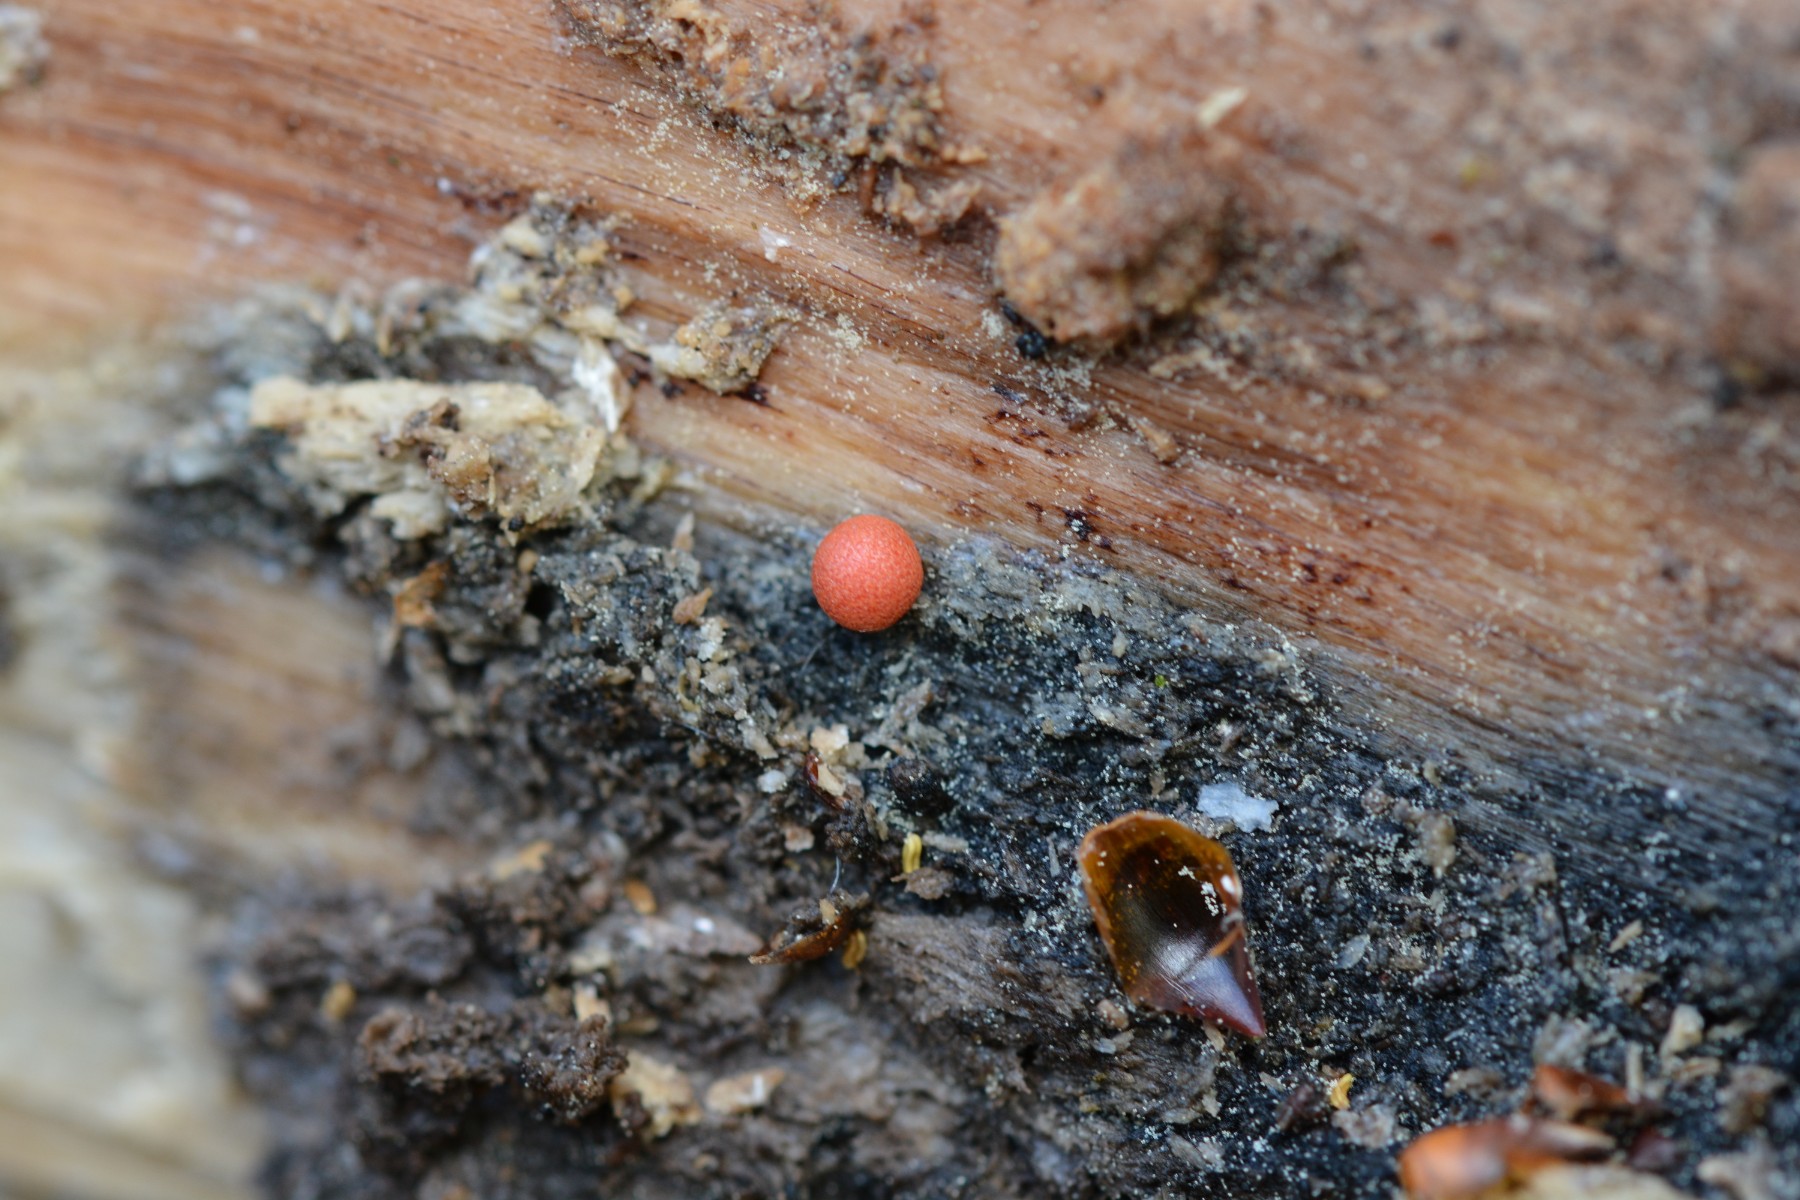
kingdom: Protozoa
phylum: Mycetozoa
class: Myxomycetes
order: Cribrariales
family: Tubiferaceae
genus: Lycogala
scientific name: Lycogala epidendrum
